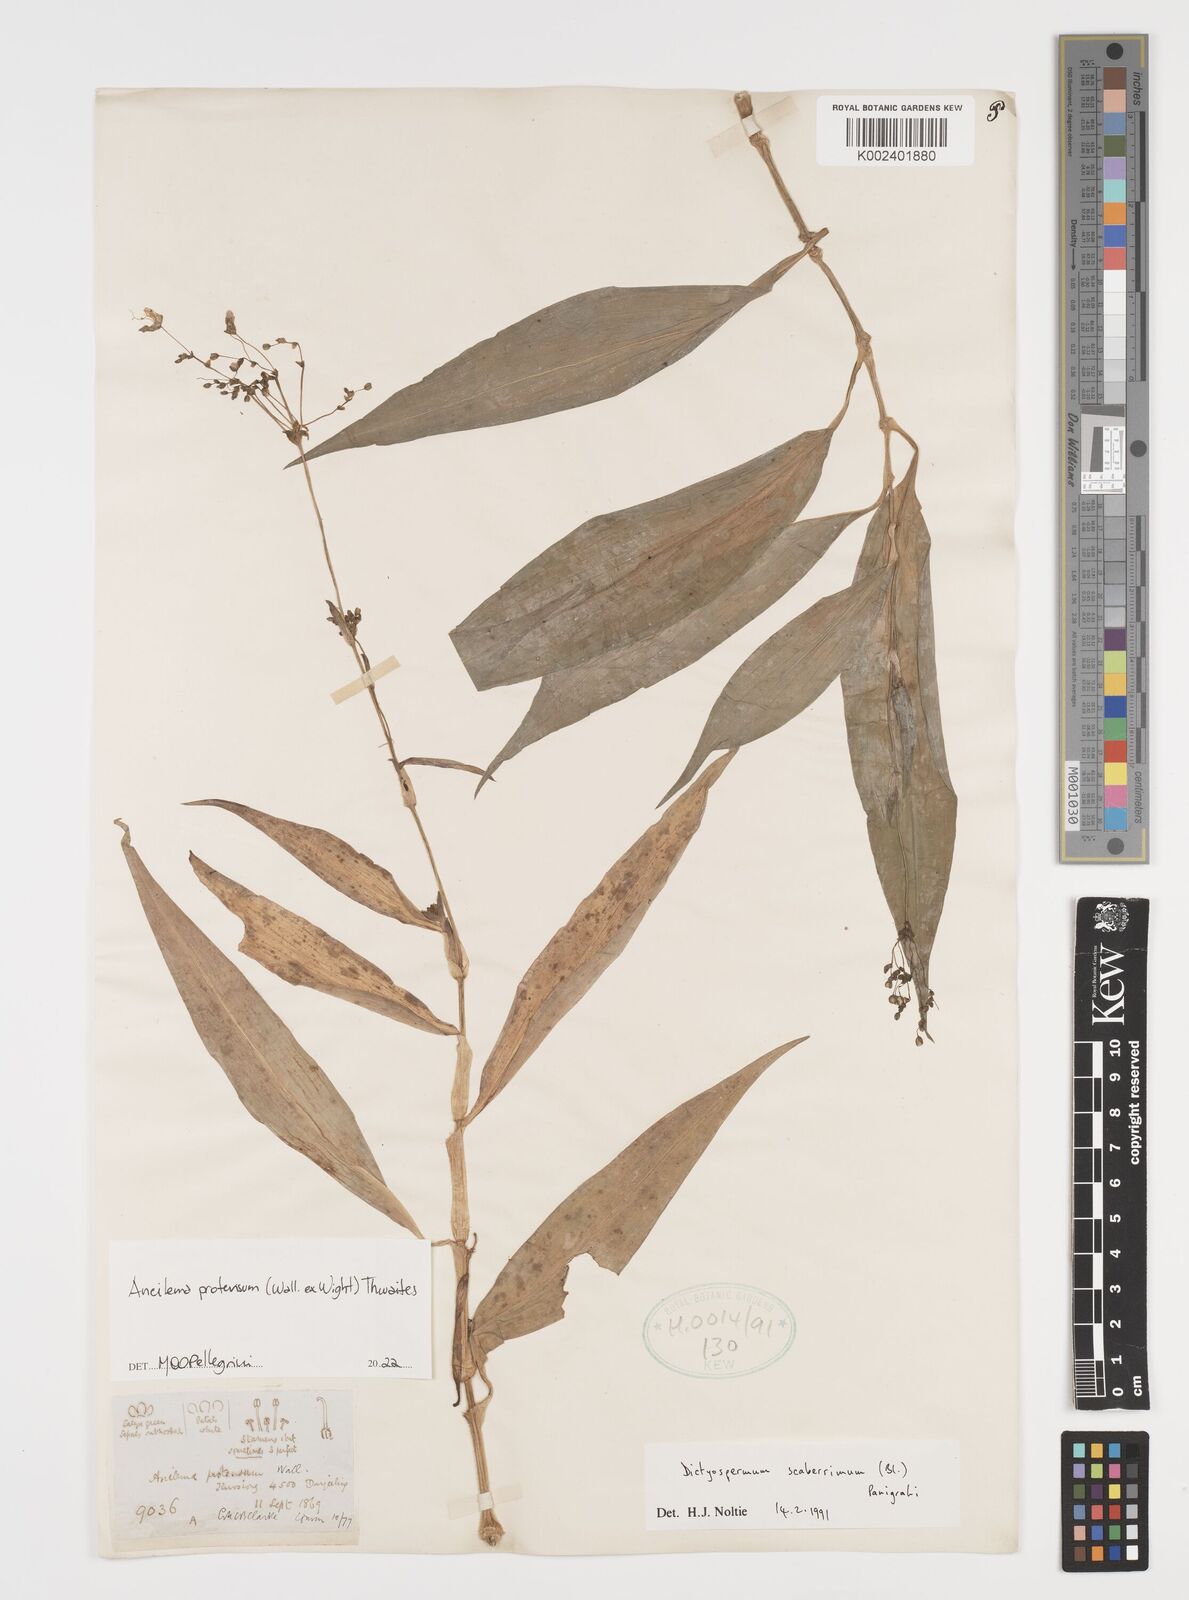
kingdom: Plantae
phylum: Tracheophyta
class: Liliopsida
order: Commelinales
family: Commelinaceae
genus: Rhopalephora
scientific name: Rhopalephora scaberrima
